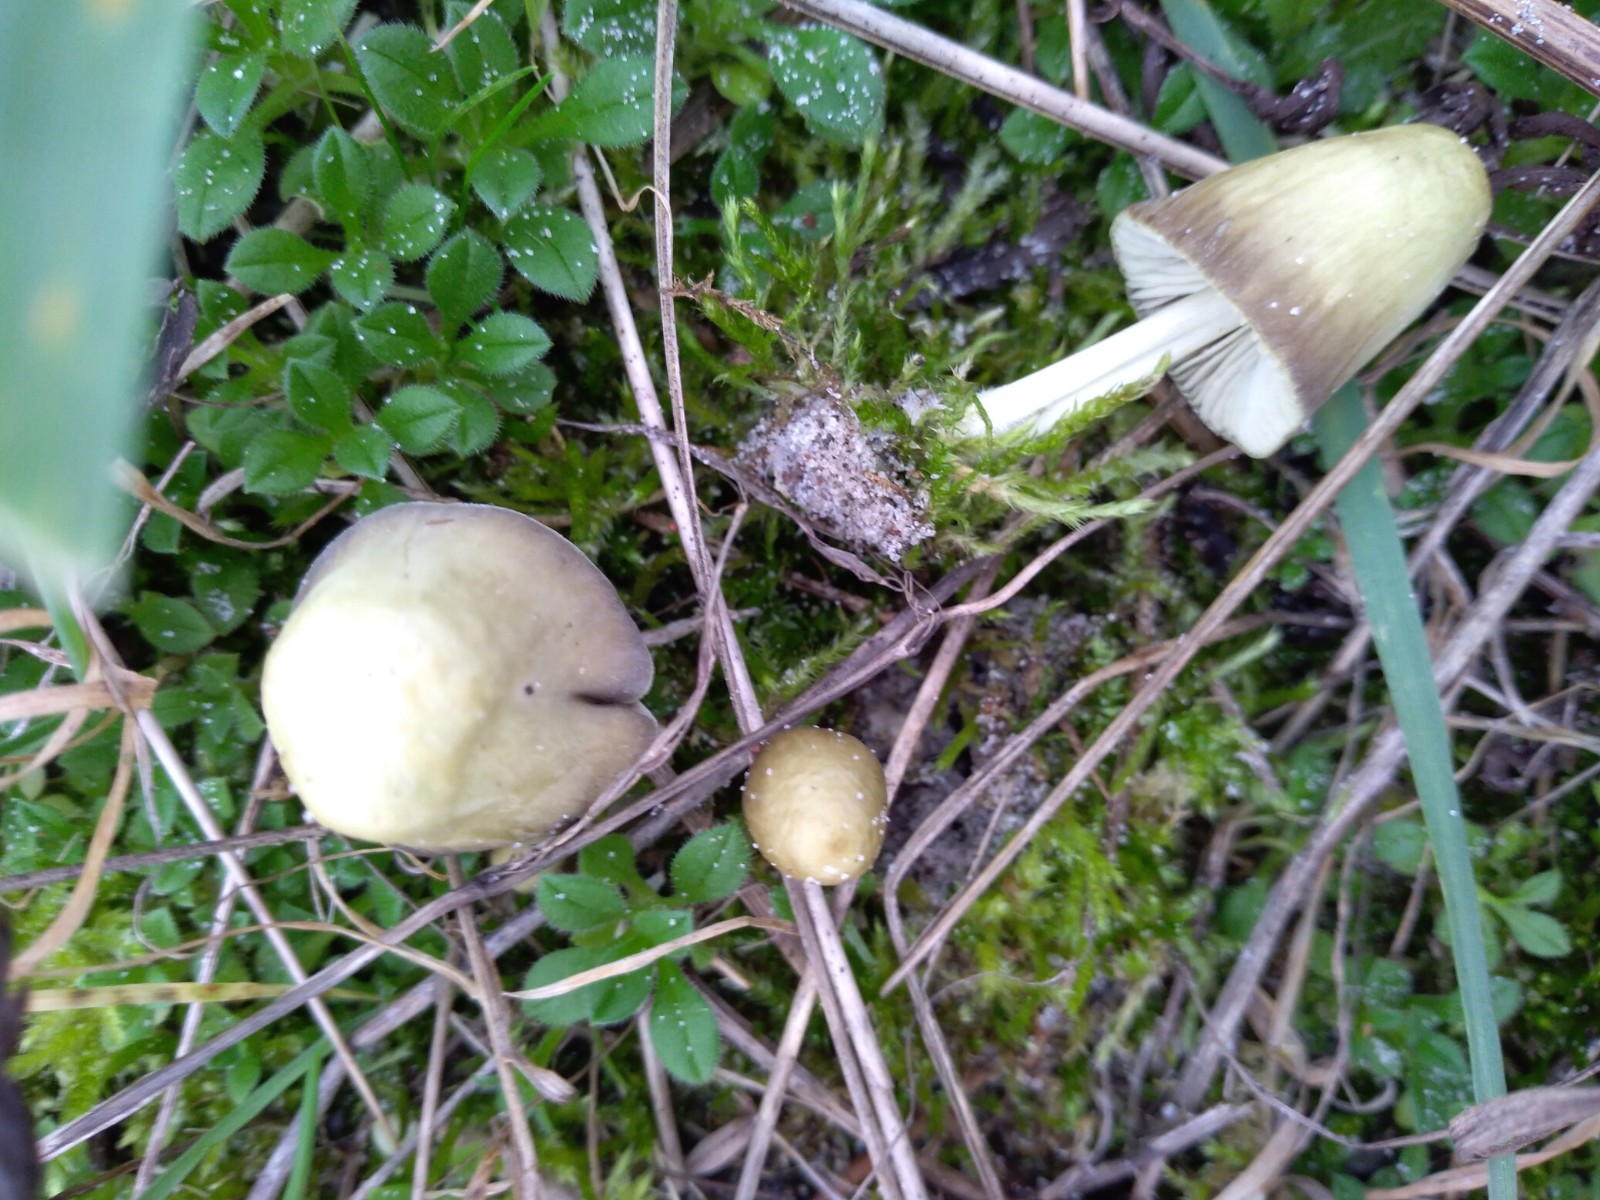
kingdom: Fungi
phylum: Basidiomycota
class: Agaricomycetes
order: Agaricales
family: Mycenaceae
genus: Mycena
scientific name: Mycena chlorantha
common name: klit-huesvamp
